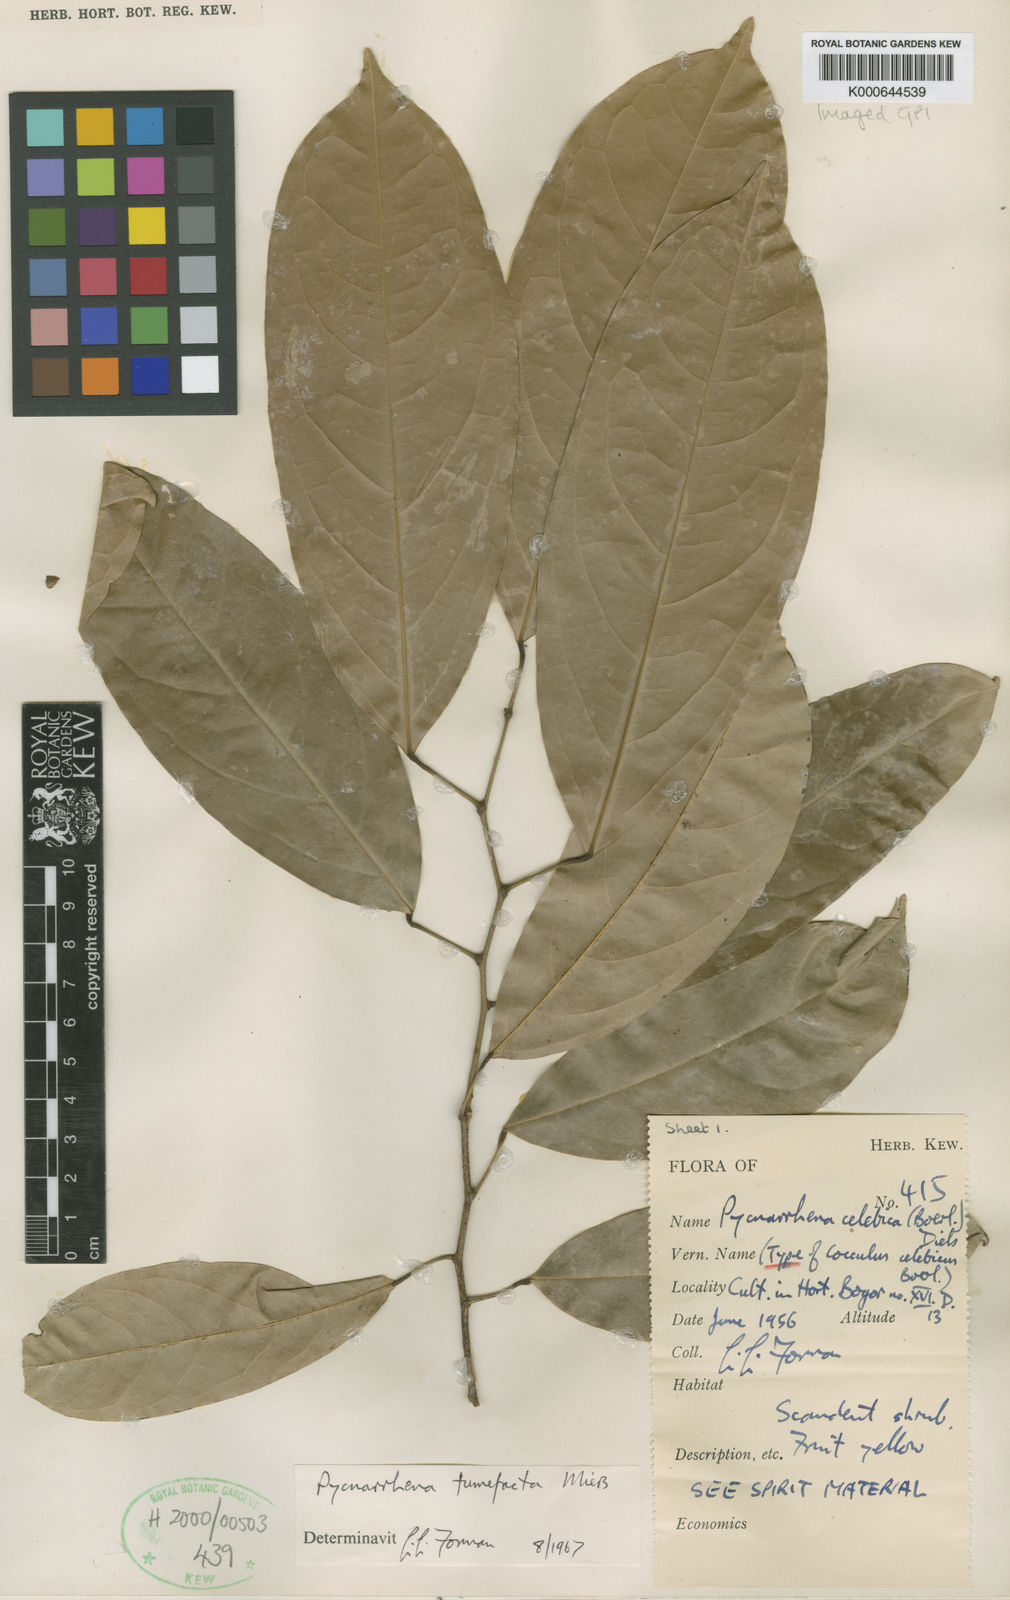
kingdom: Plantae
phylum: Tracheophyta
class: Magnoliopsida
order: Ranunculales
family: Menispermaceae
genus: Pycnarrhena
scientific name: Pycnarrhena tumefacta
